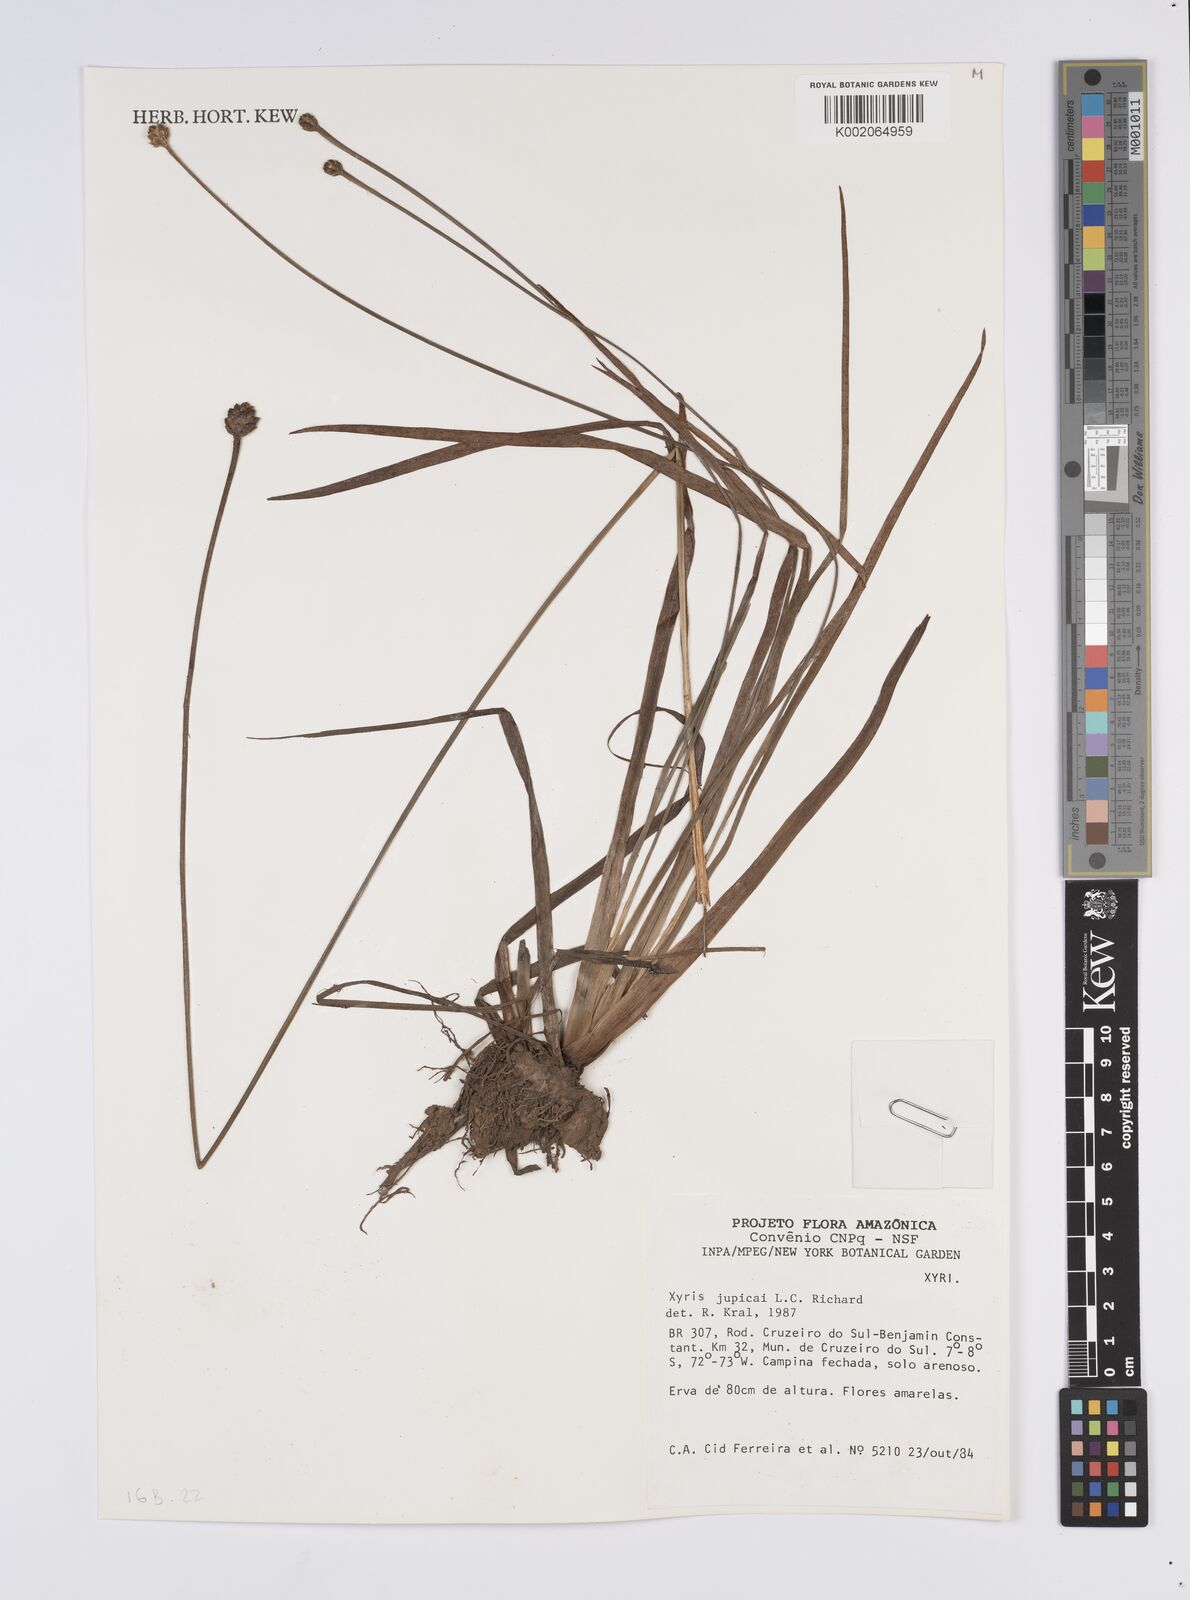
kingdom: Plantae
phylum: Tracheophyta
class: Liliopsida
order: Poales
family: Xyridaceae
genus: Xyris
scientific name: Xyris jupicai
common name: Richard's yelloweyed grass
